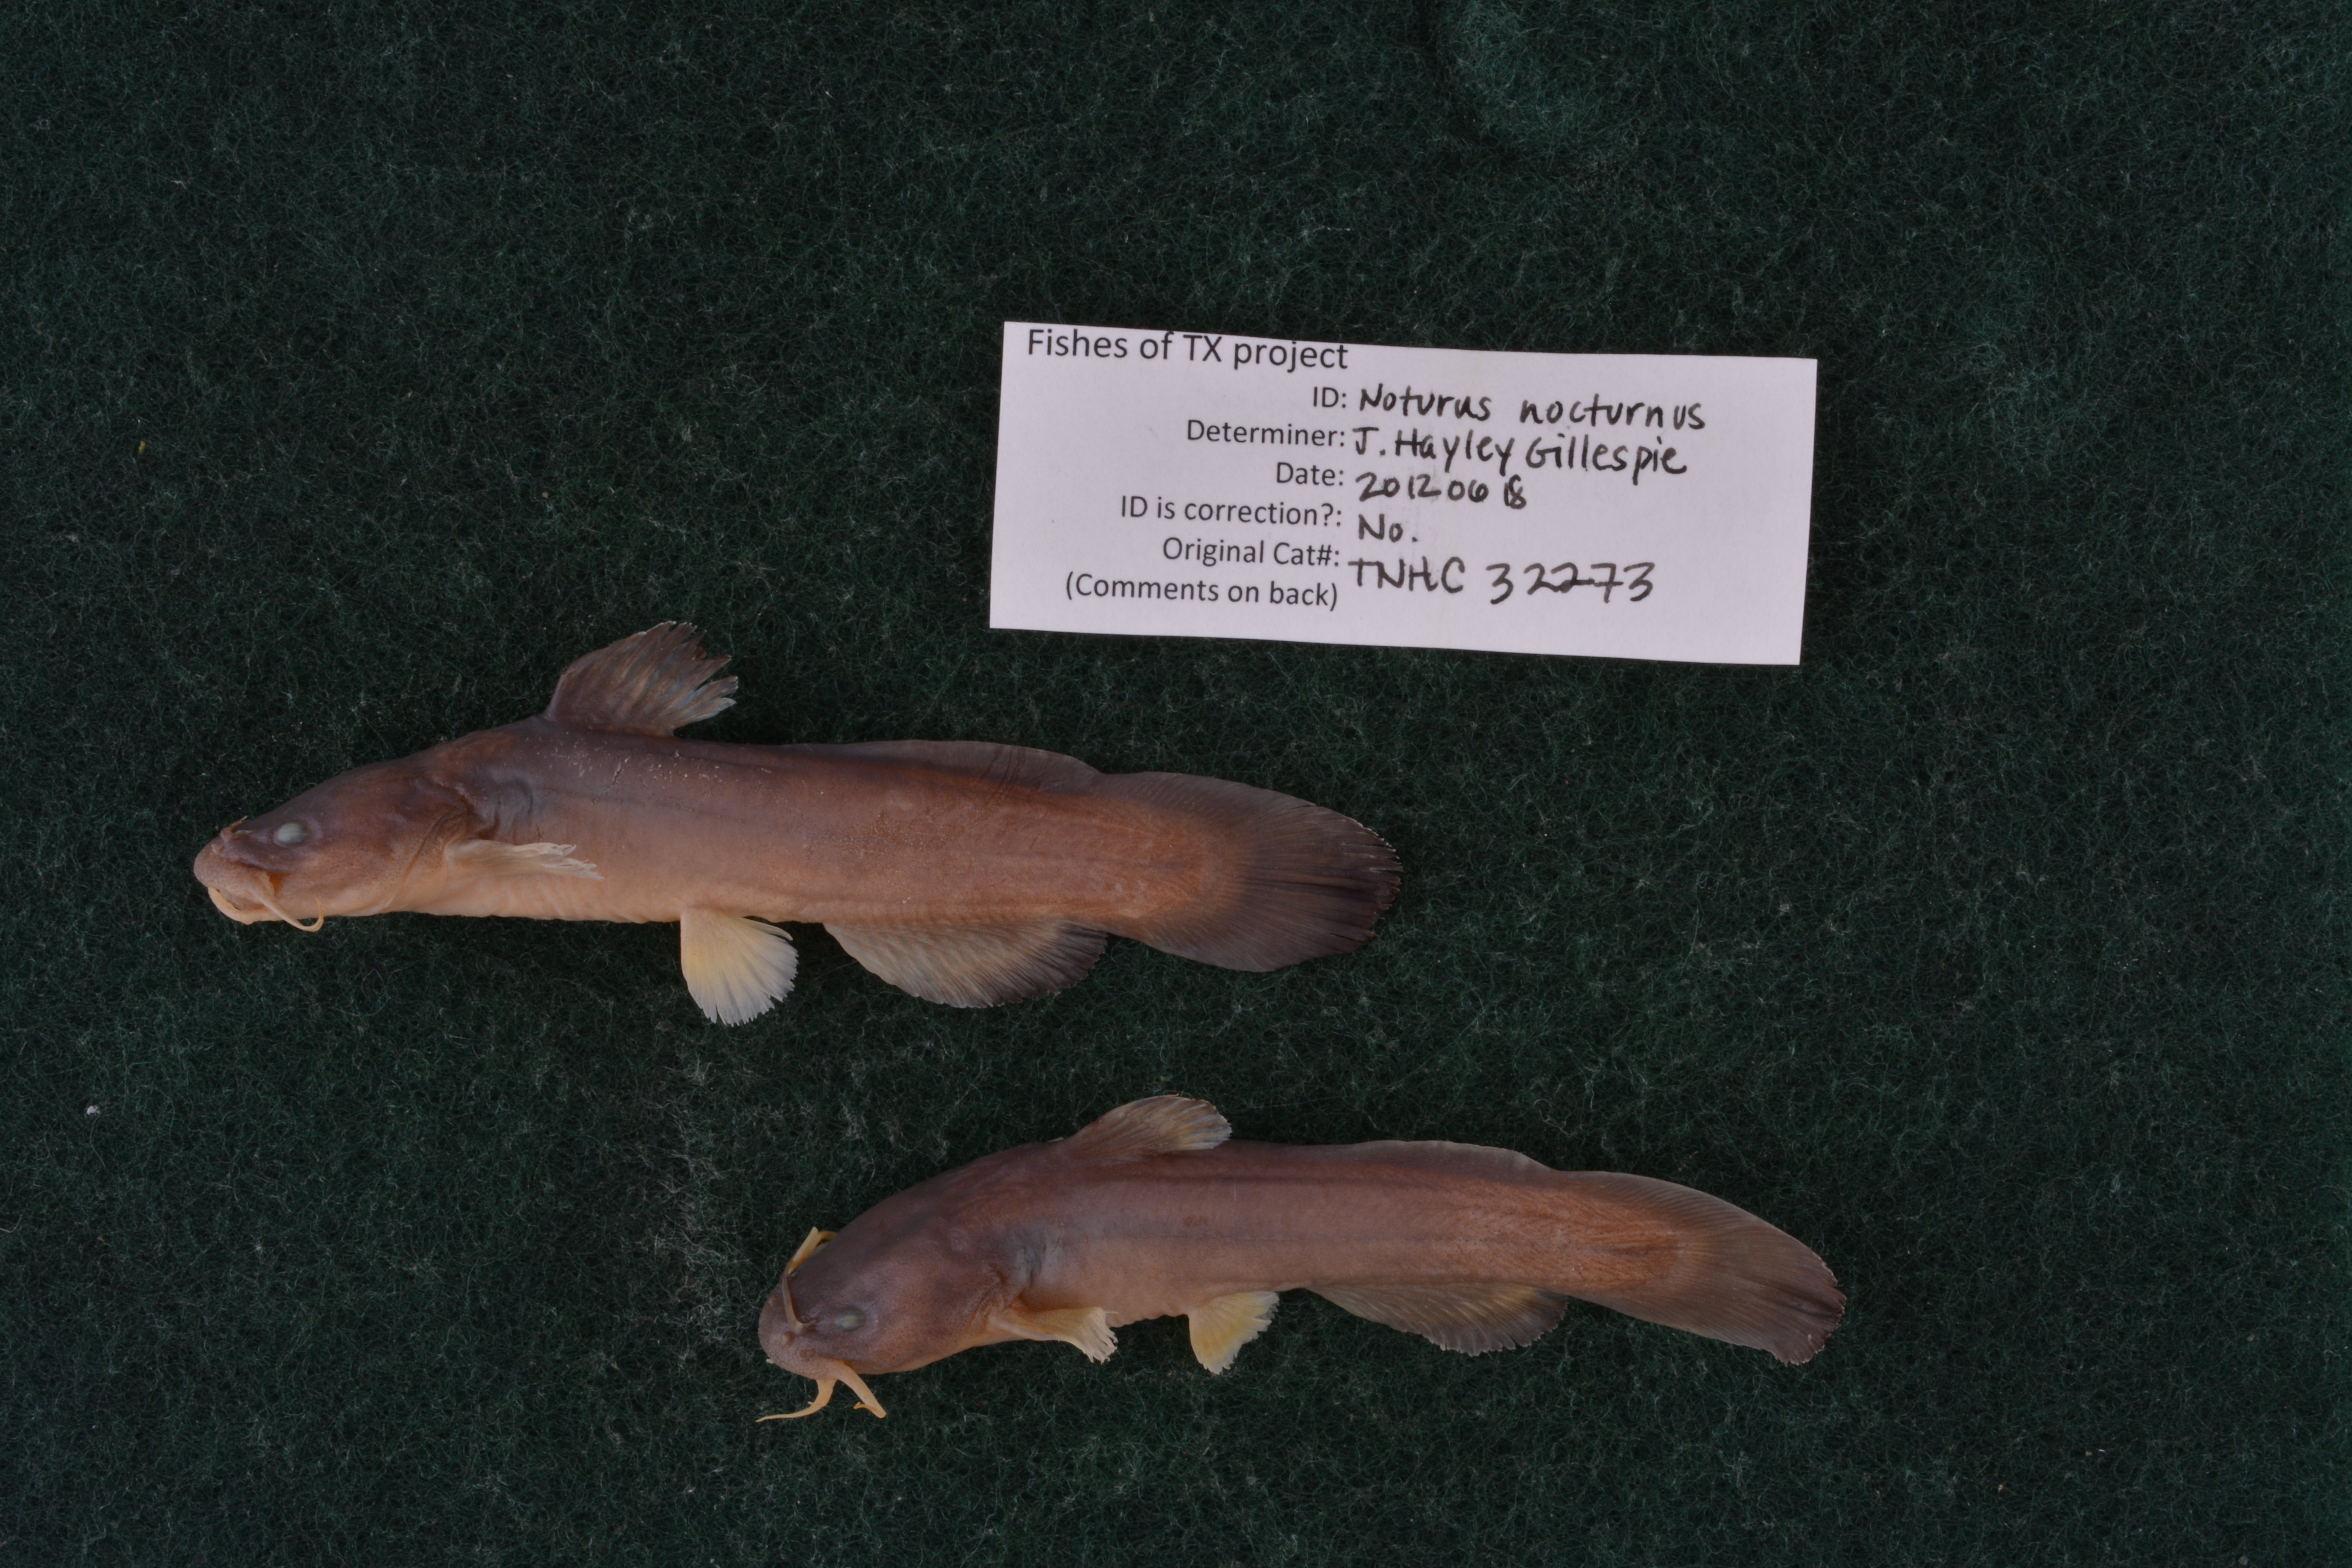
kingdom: Animalia
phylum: Chordata
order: Siluriformes
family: Ictaluridae
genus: Noturus
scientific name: Noturus nocturnus
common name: Freckled madtom
